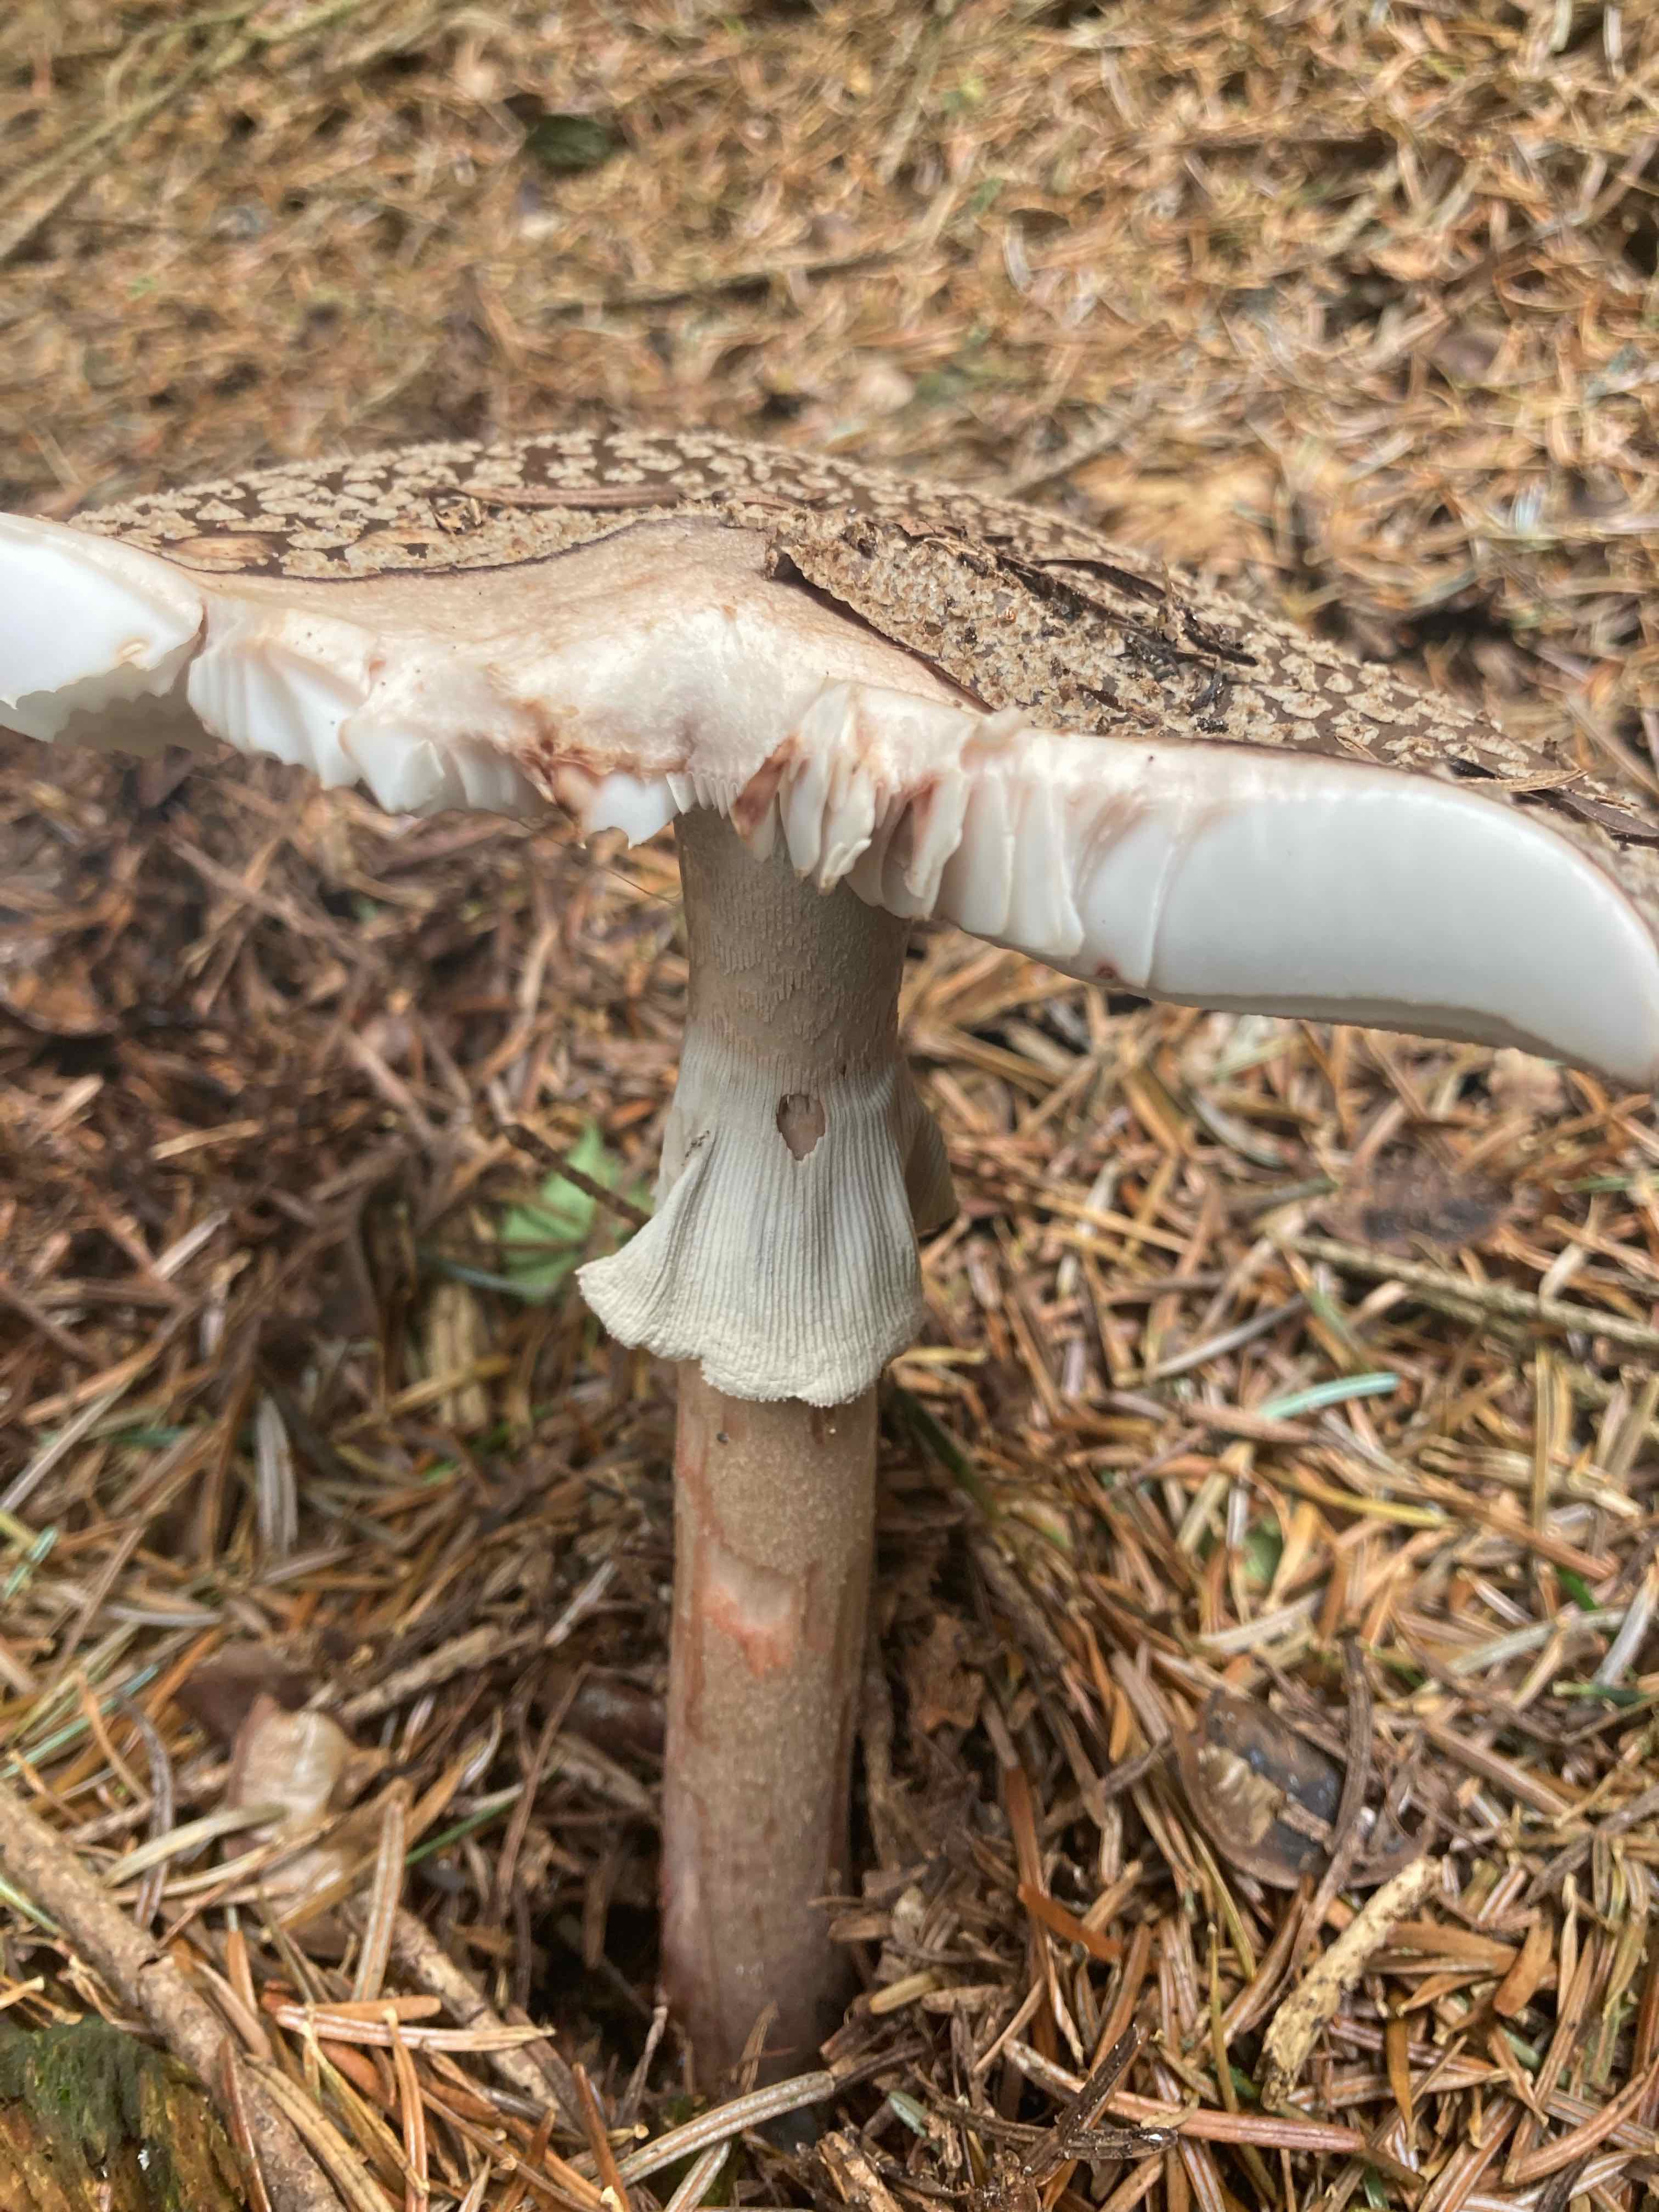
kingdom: Fungi
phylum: Basidiomycota
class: Agaricomycetes
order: Agaricales
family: Amanitaceae
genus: Amanita
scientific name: Amanita rubescens
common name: rødmende fluesvamp
